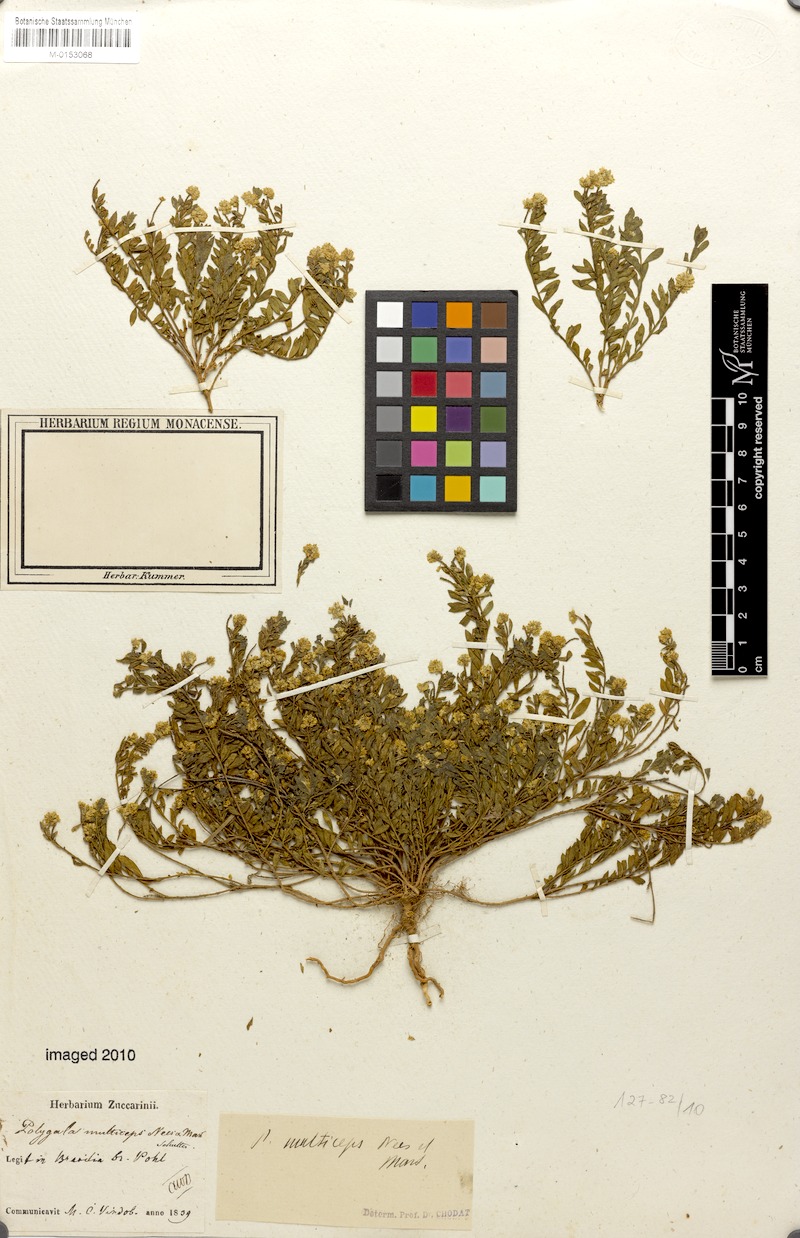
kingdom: Plantae
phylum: Tracheophyta
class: Magnoliopsida
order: Fabales
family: Polygalaceae
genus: Polygala
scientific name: Polygala multiceps
